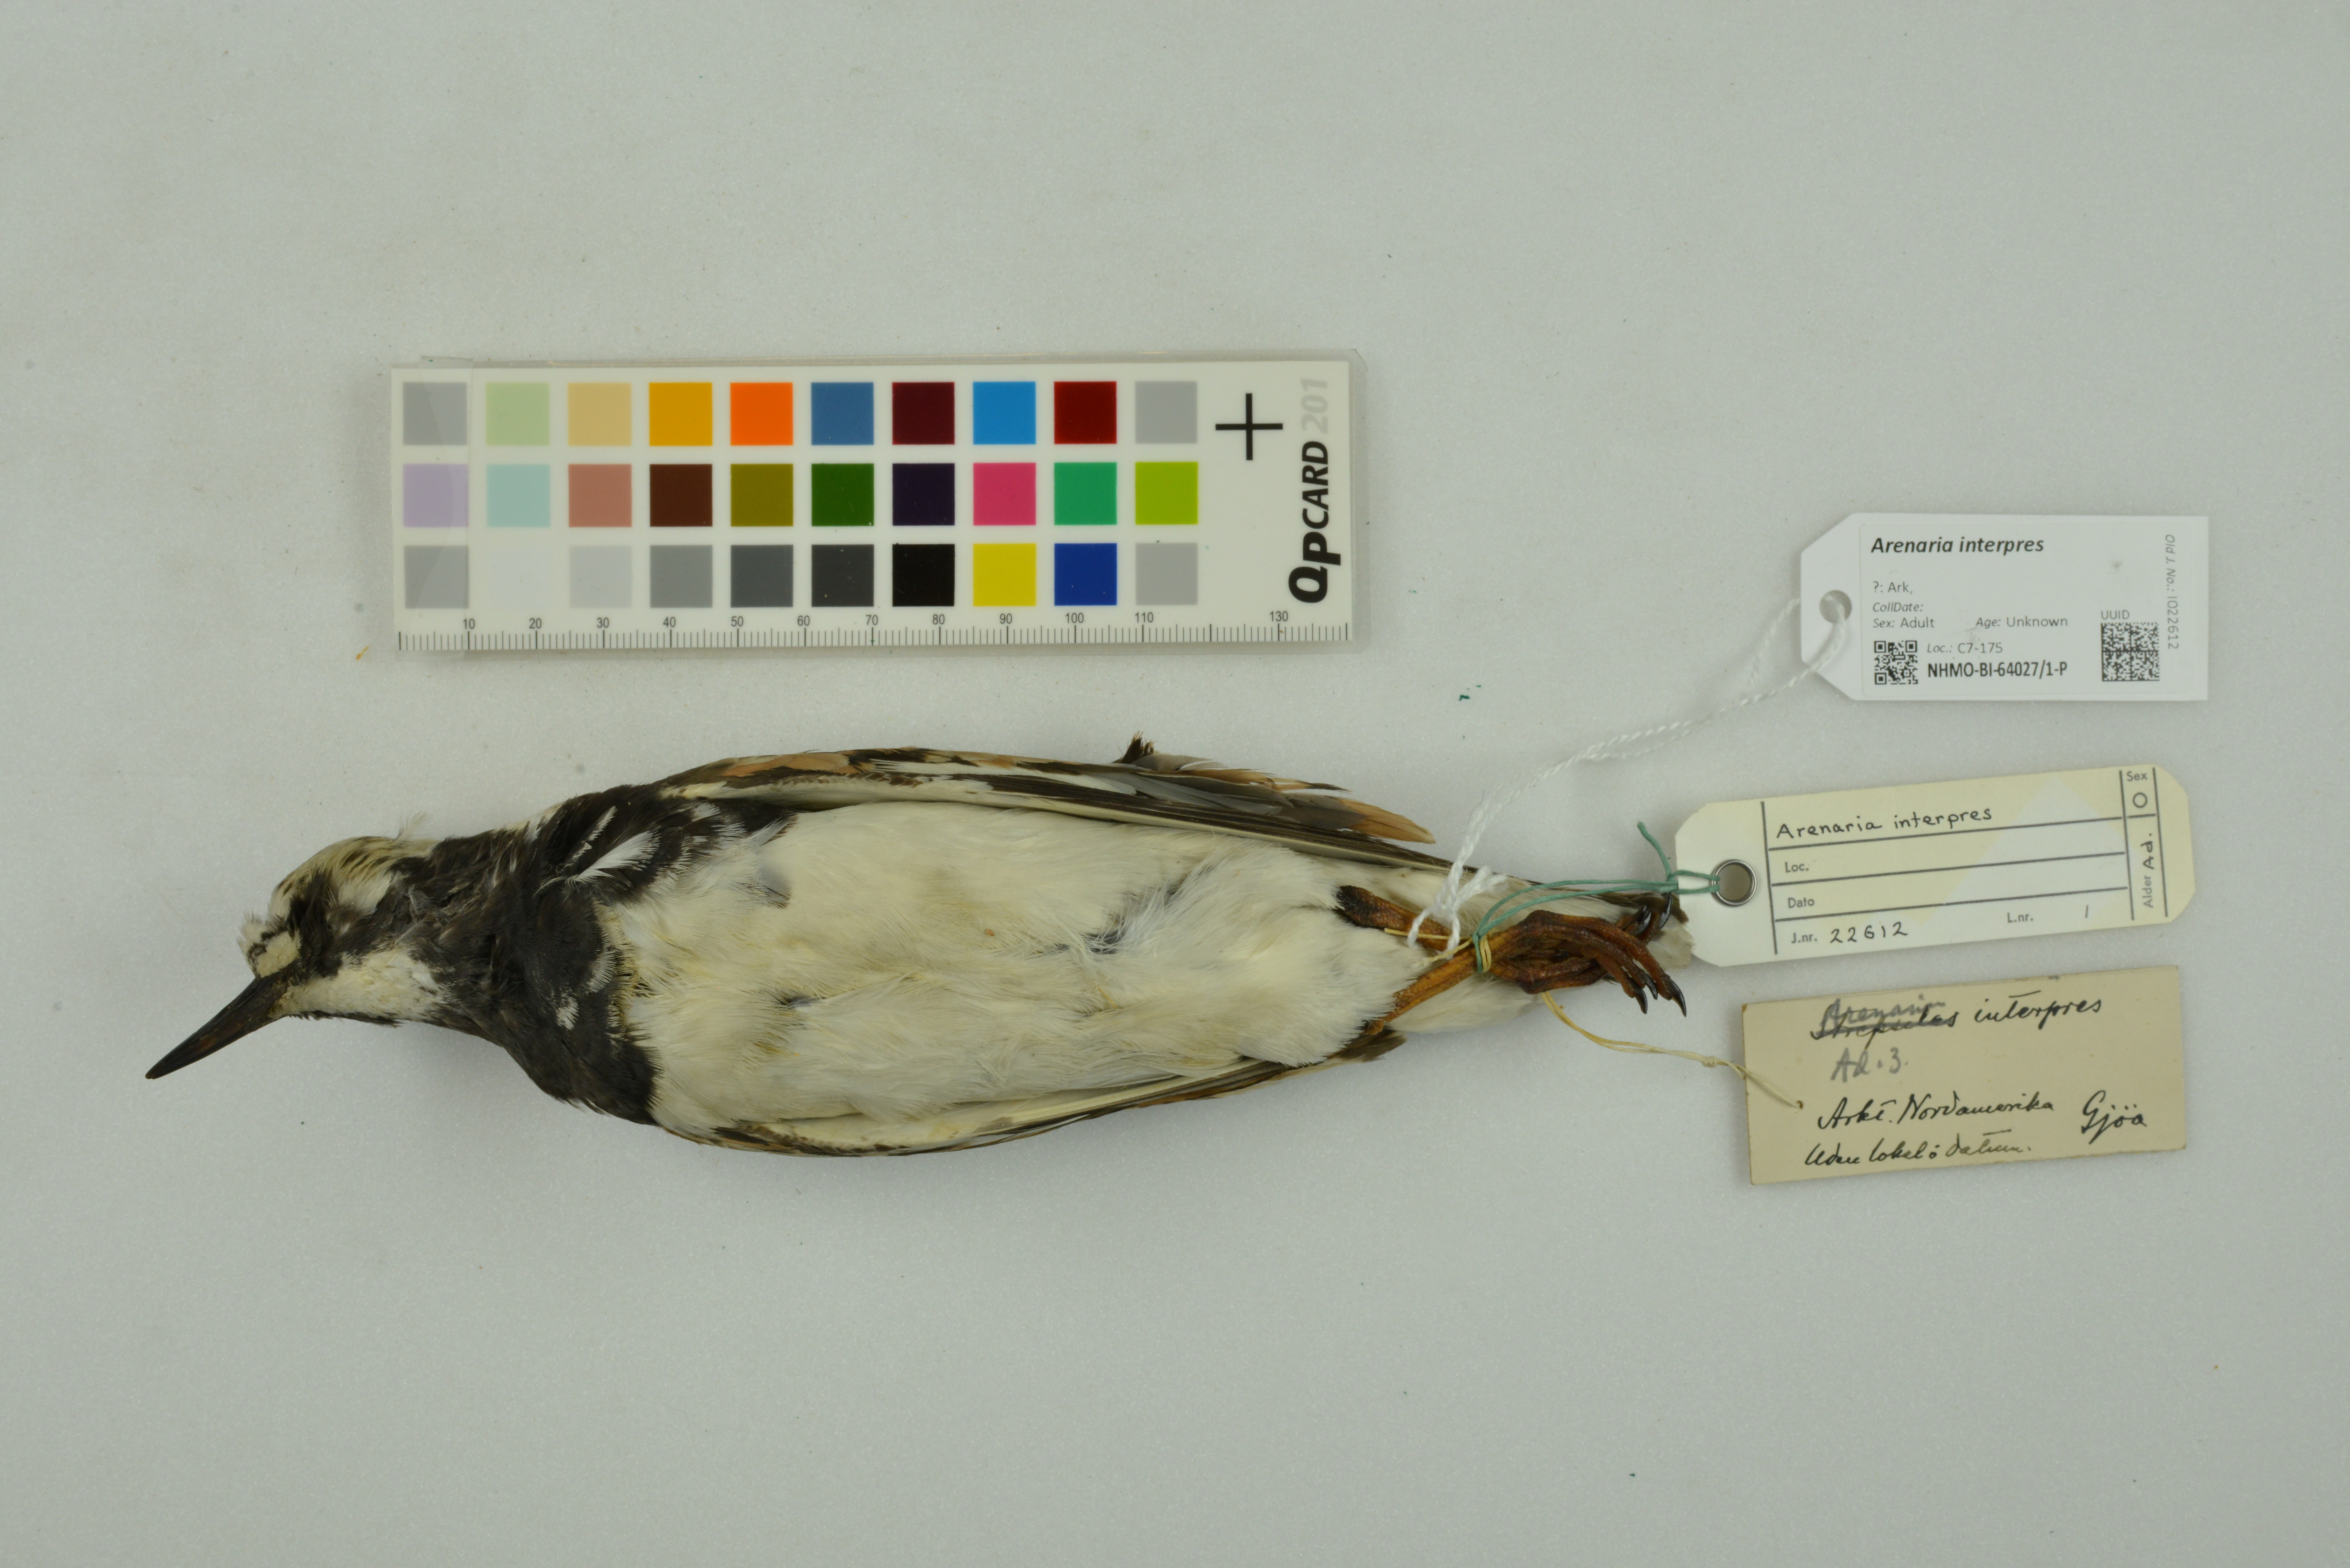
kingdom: Animalia
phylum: Chordata
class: Aves
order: Charadriiformes
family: Scolopacidae
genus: Arenaria
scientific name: Arenaria interpres
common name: Ruddy turnstone
